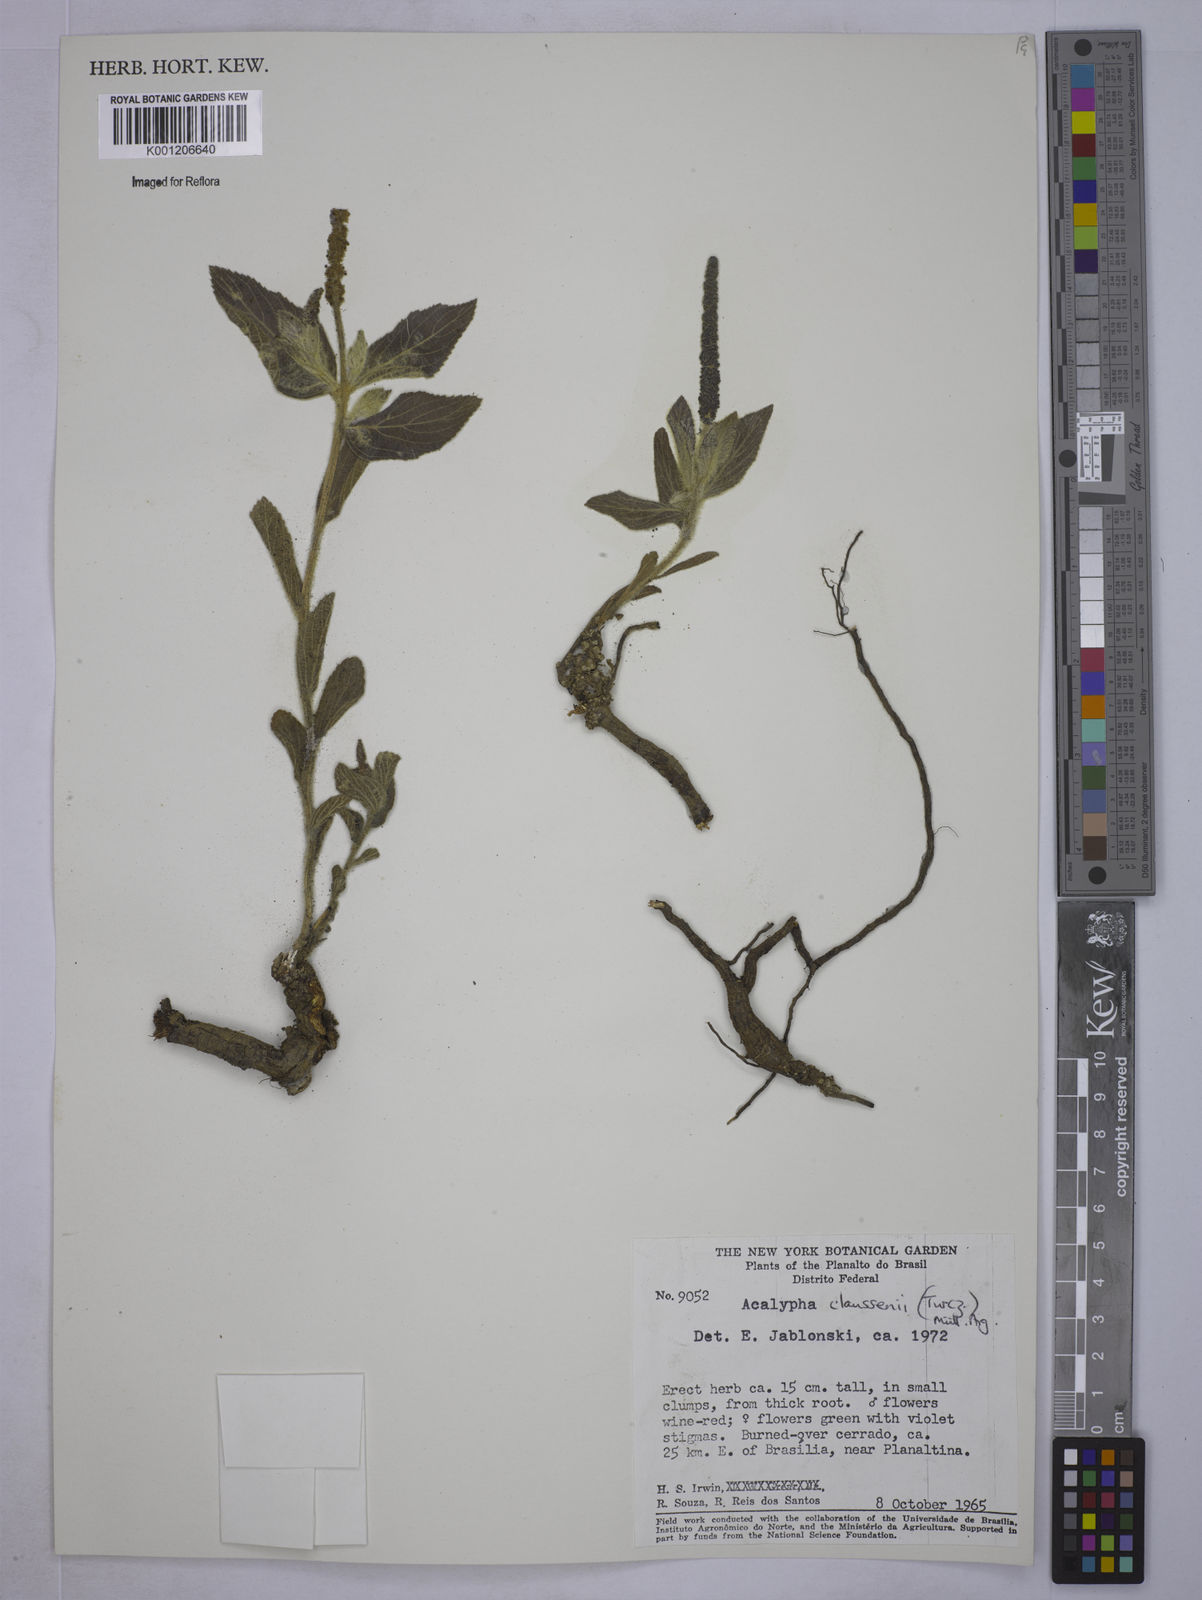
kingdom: Plantae
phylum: Tracheophyta
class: Magnoliopsida
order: Malpighiales
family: Euphorbiaceae
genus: Acalypha
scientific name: Acalypha
